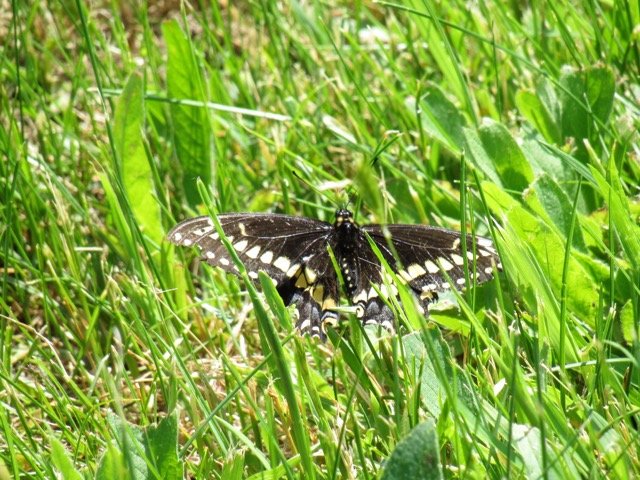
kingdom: Animalia
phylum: Arthropoda
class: Insecta
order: Lepidoptera
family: Papilionidae
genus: Papilio
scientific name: Papilio polyxenes
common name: Black Swallowtail
